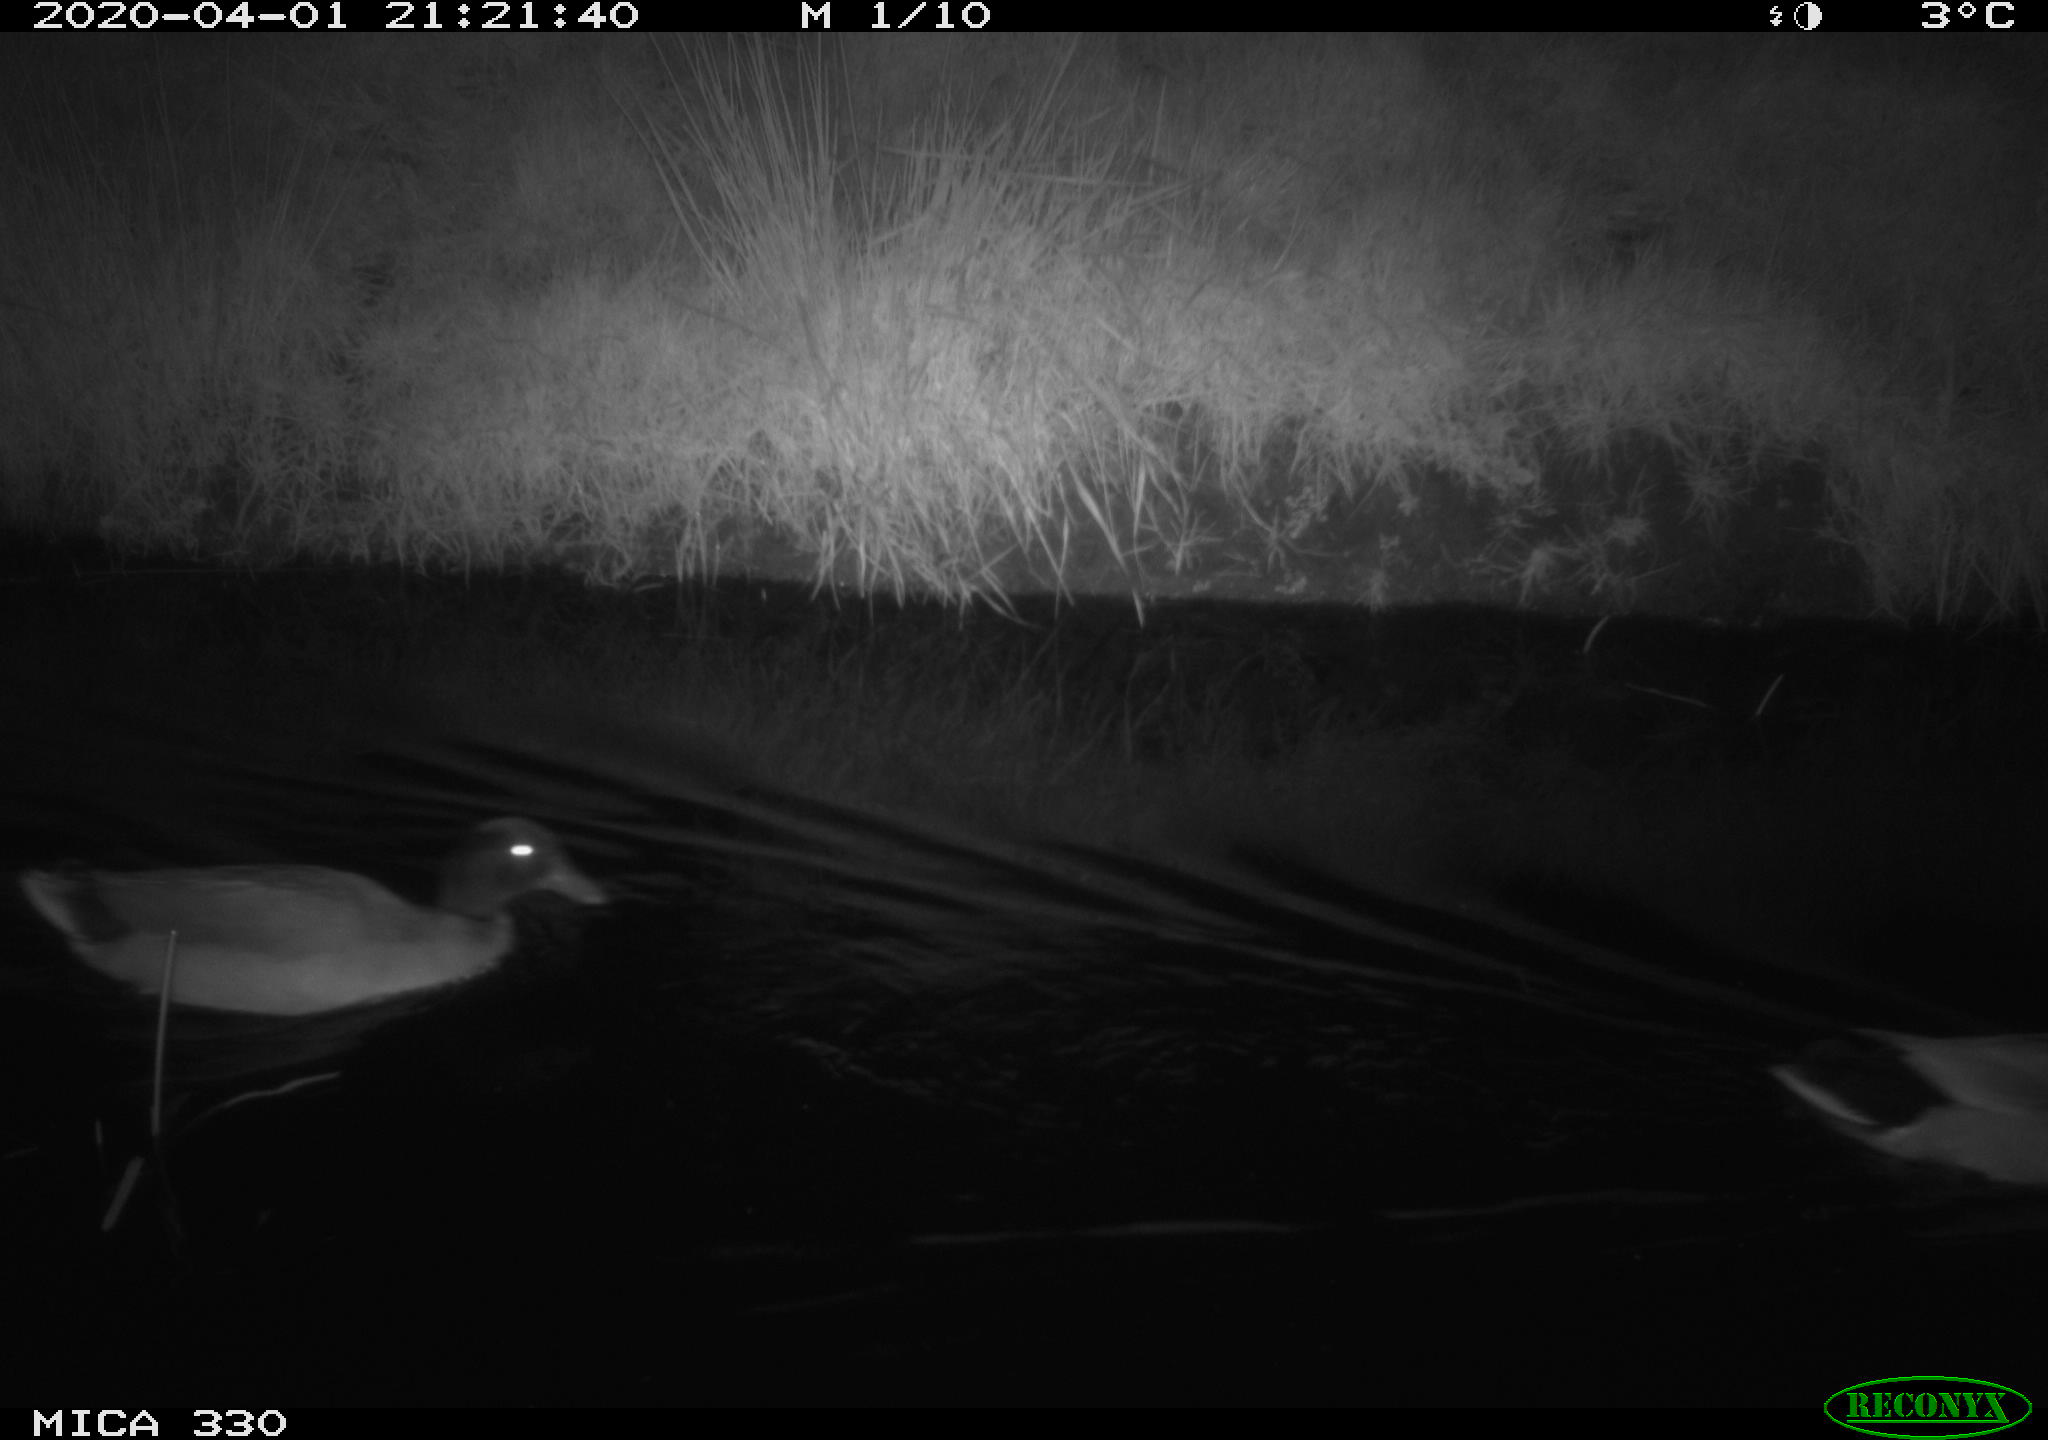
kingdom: Animalia
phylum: Chordata
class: Aves
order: Anseriformes
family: Anatidae
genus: Anas
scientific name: Anas platyrhynchos
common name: Mallard
